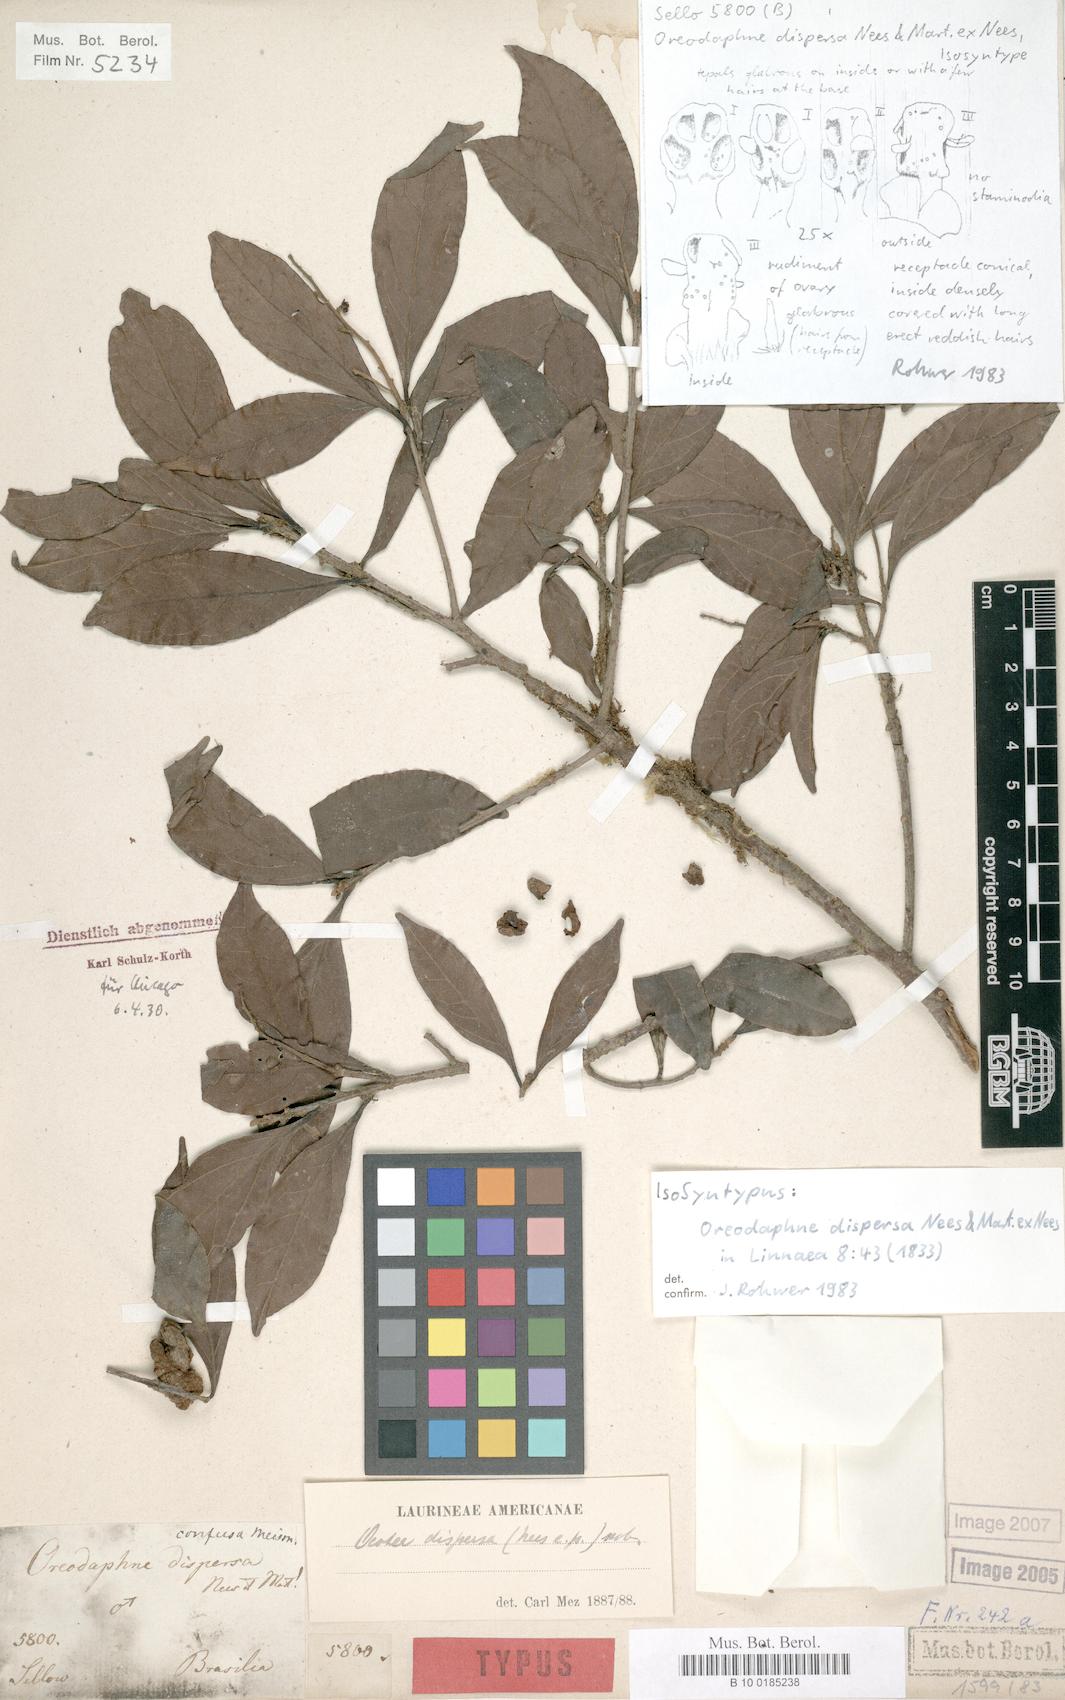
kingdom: Plantae
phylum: Tracheophyta
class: Magnoliopsida
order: Laurales
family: Lauraceae
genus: Ocotea
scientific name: Ocotea dispersa
